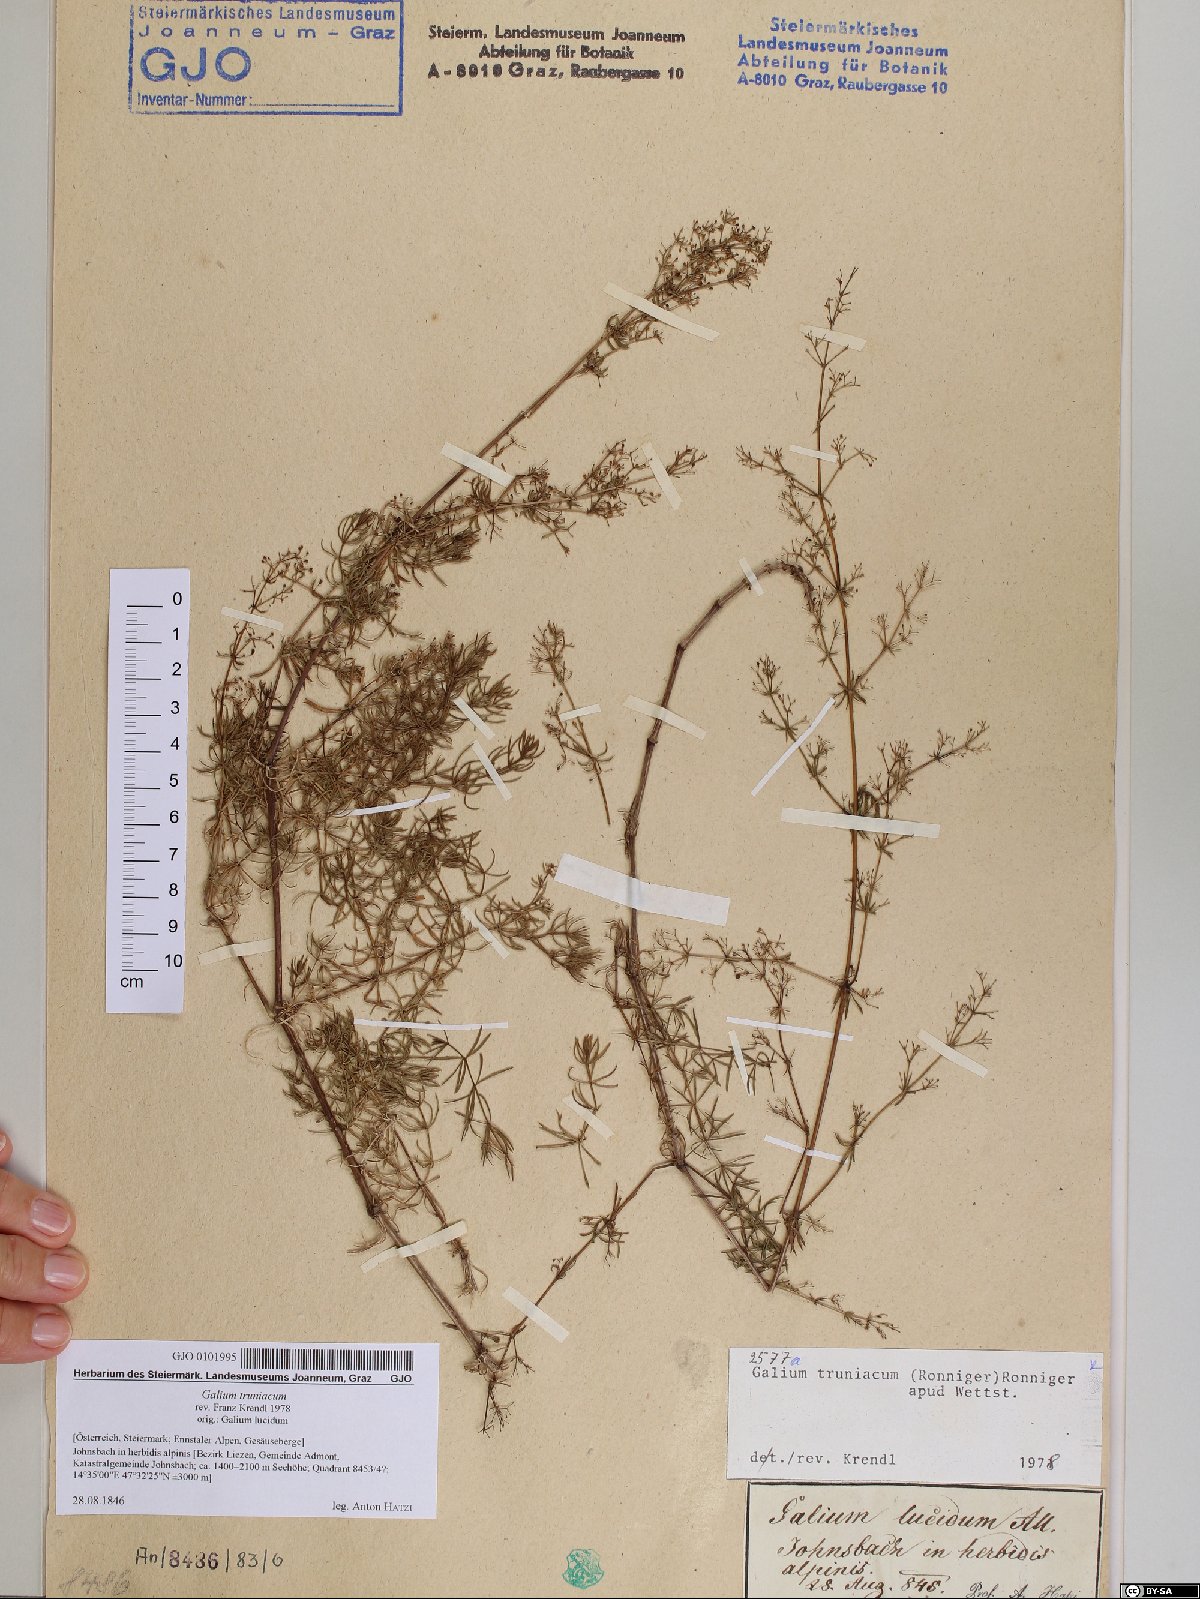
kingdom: Plantae
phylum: Tracheophyta
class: Magnoliopsida
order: Gentianales
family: Rubiaceae
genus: Galium
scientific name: Galium truniacum
